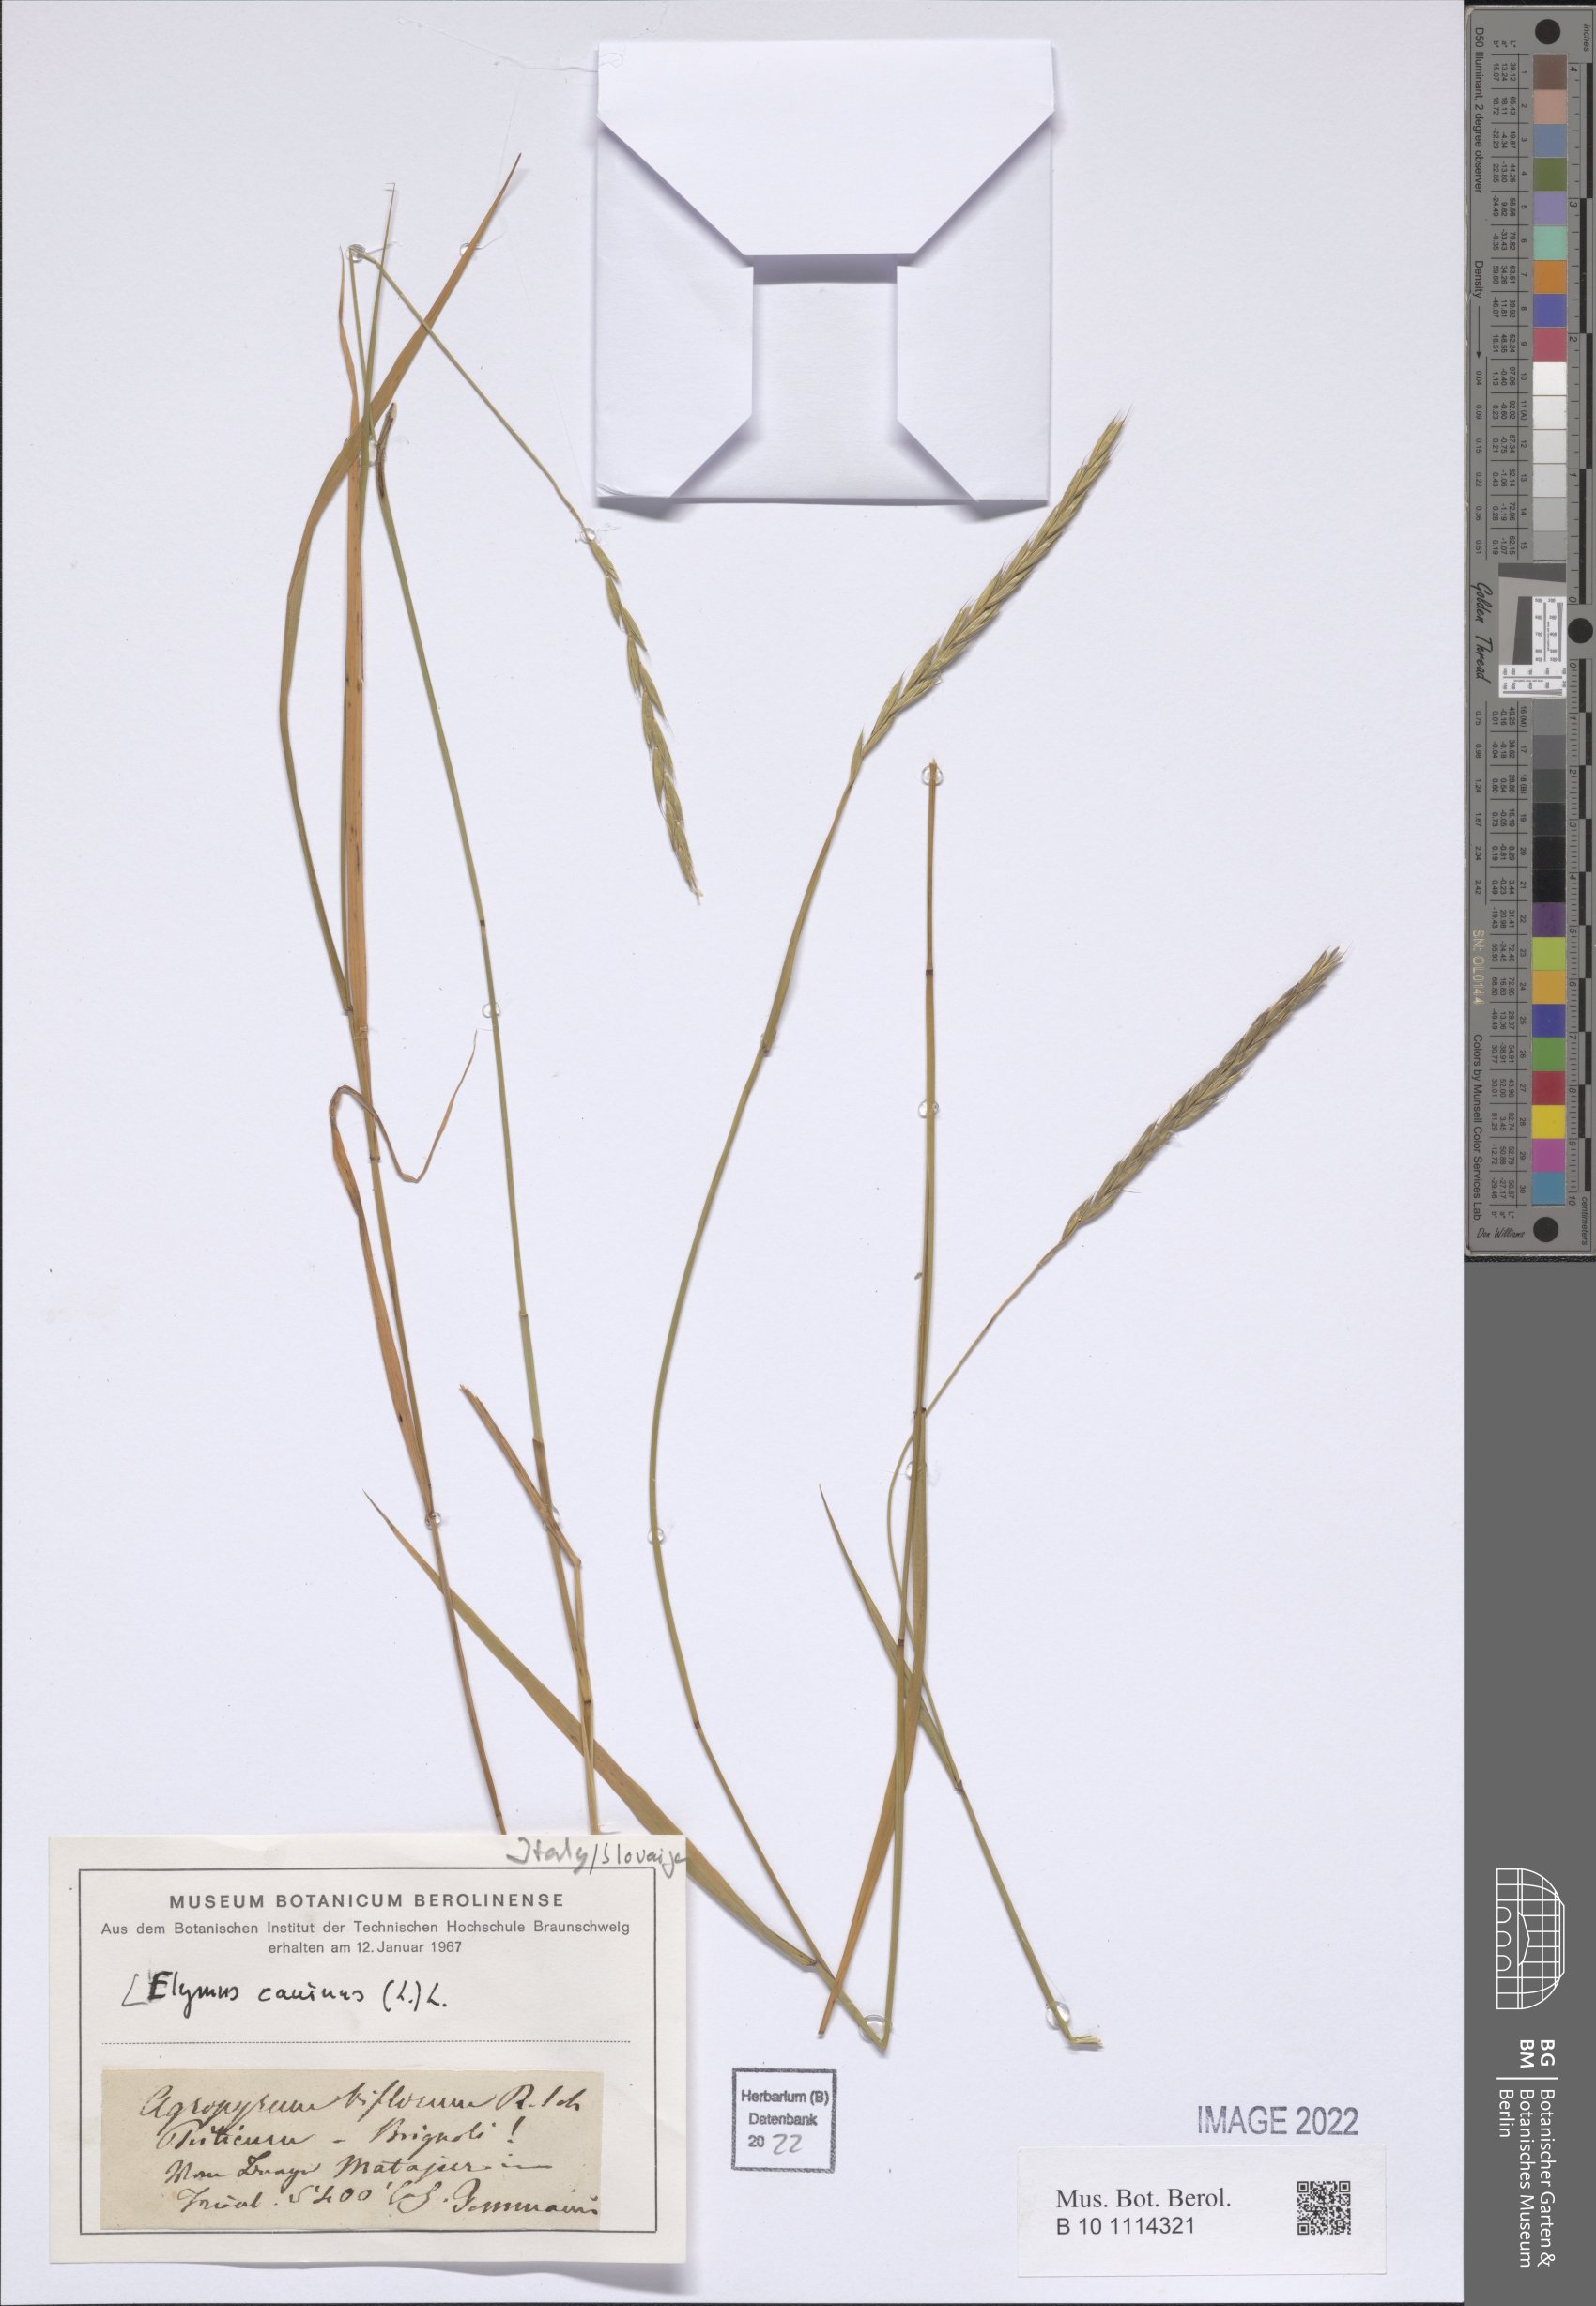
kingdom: Plantae
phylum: Tracheophyta
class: Liliopsida
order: Poales
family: Poaceae
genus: Elymus
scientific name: Elymus caninus
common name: Bearded couch
